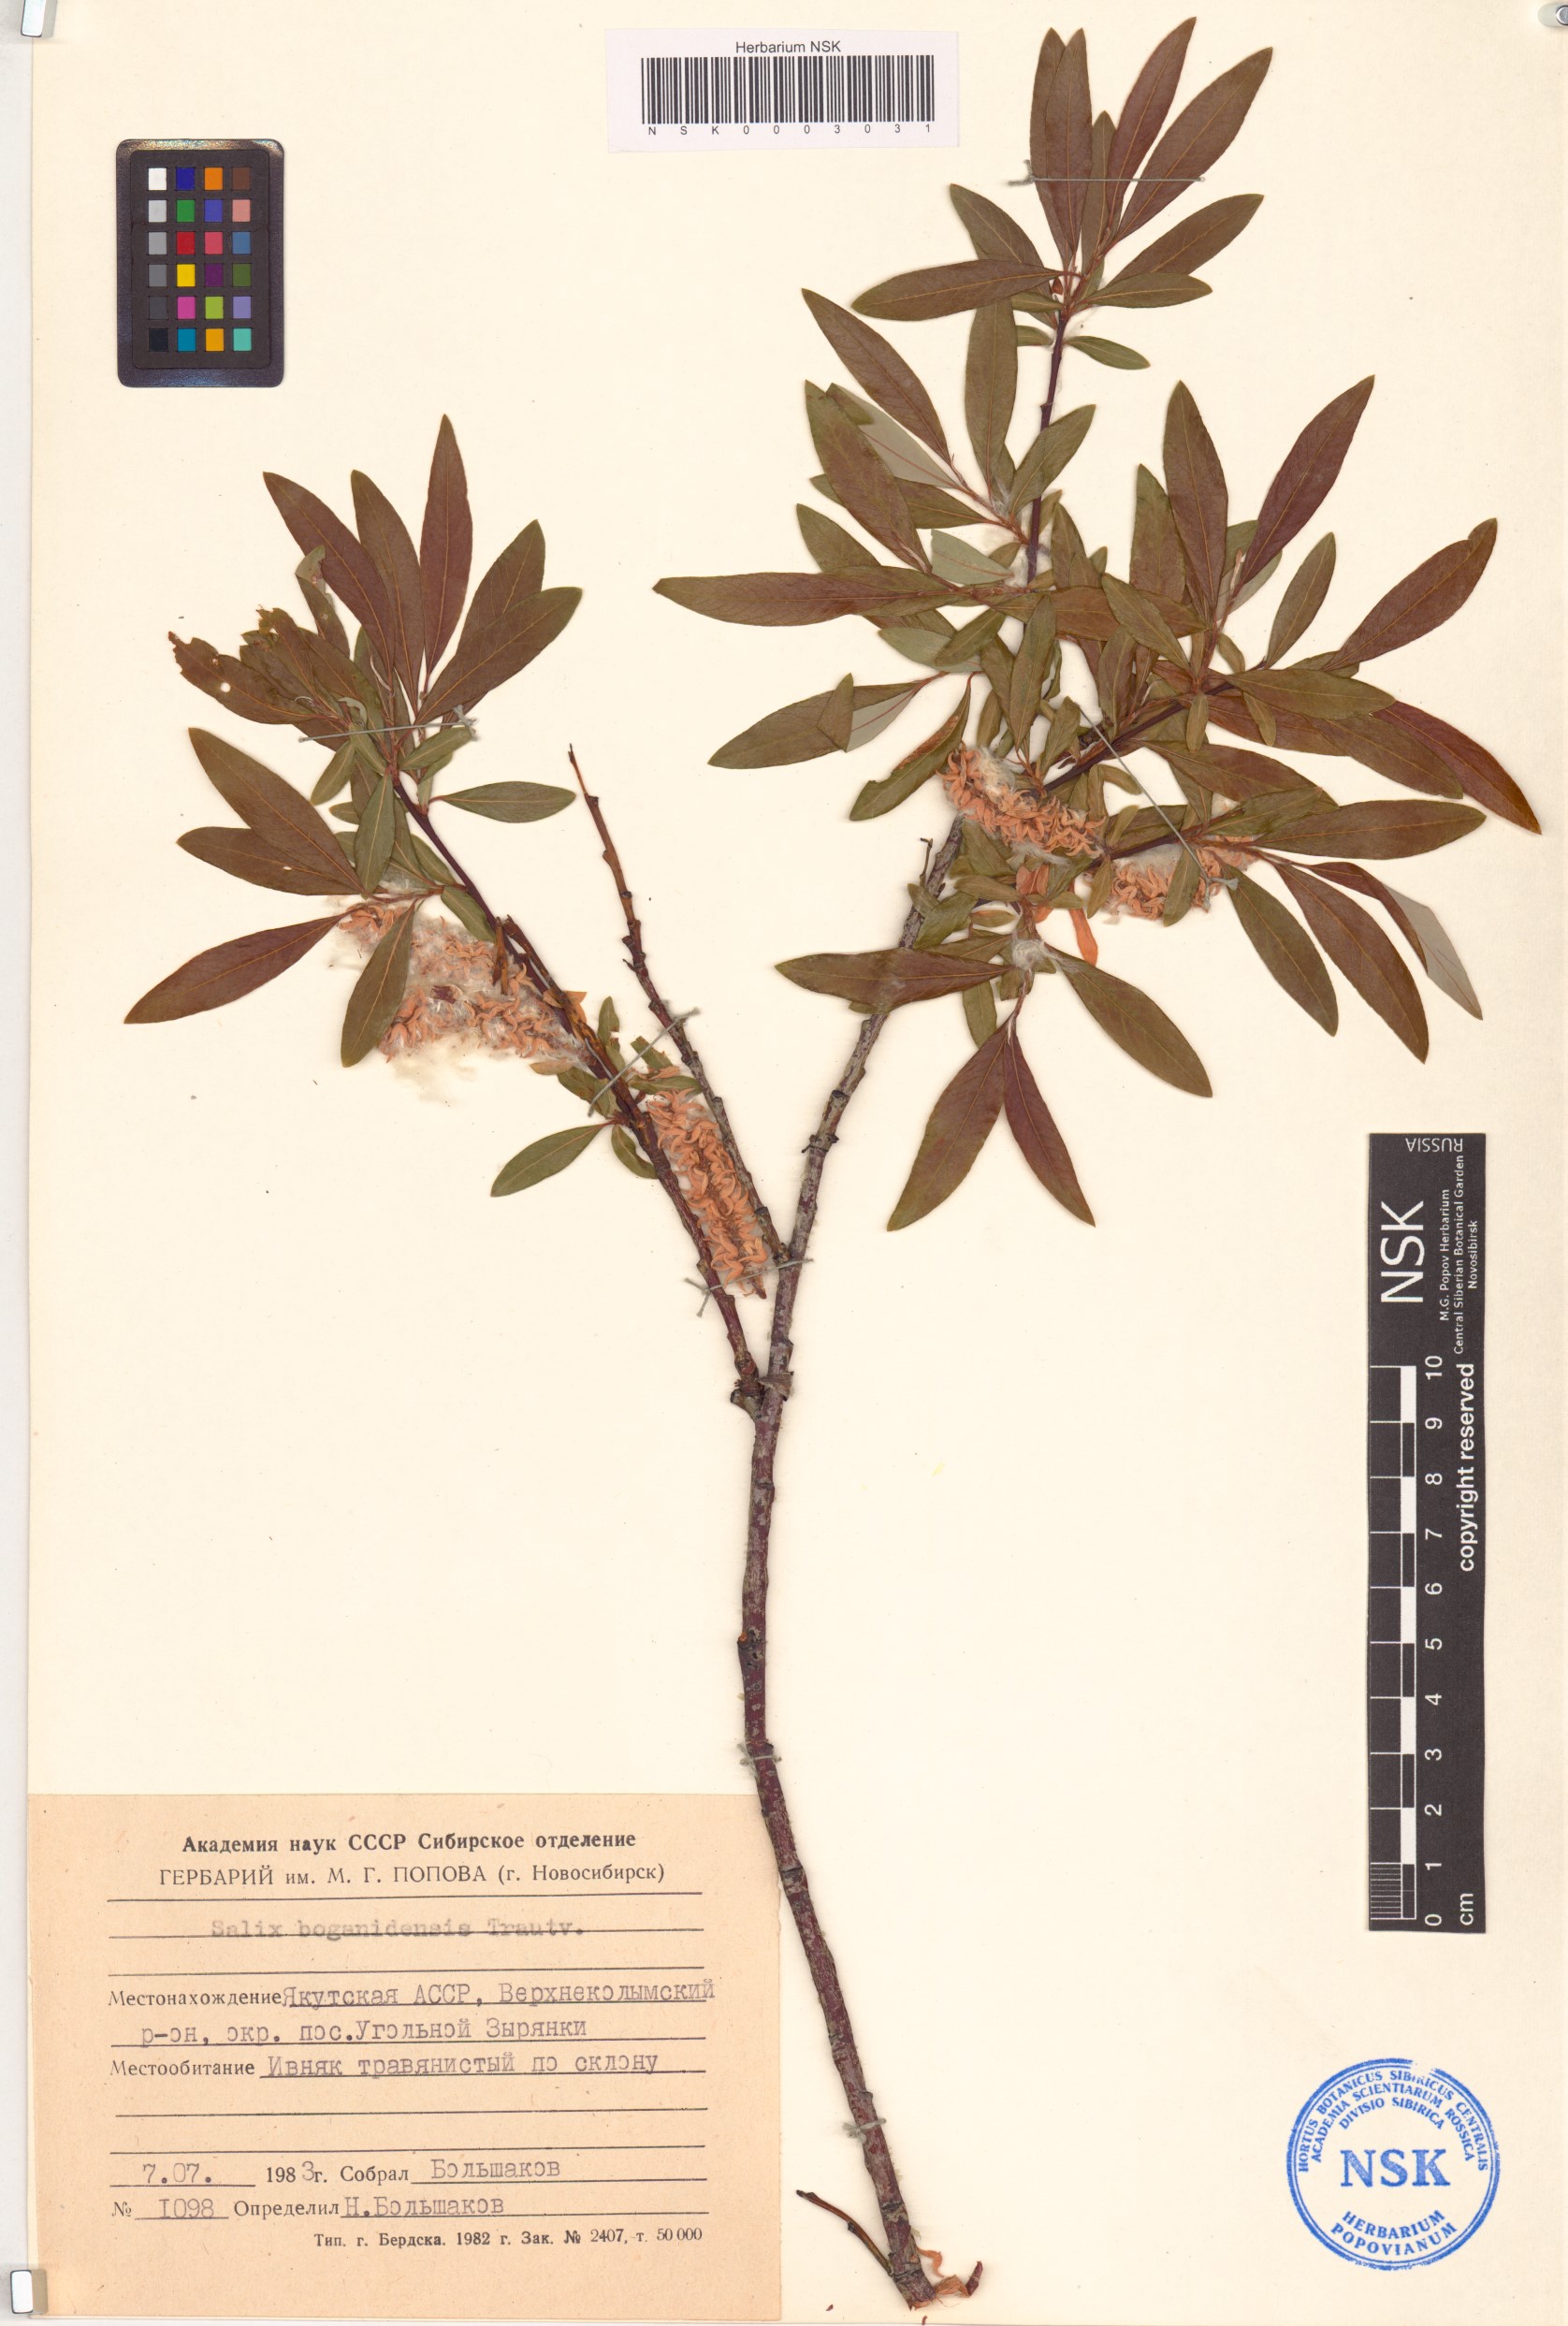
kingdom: Plantae
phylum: Tracheophyta
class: Magnoliopsida
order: Malpighiales
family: Salicaceae
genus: Salix
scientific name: Salix boganidensis
